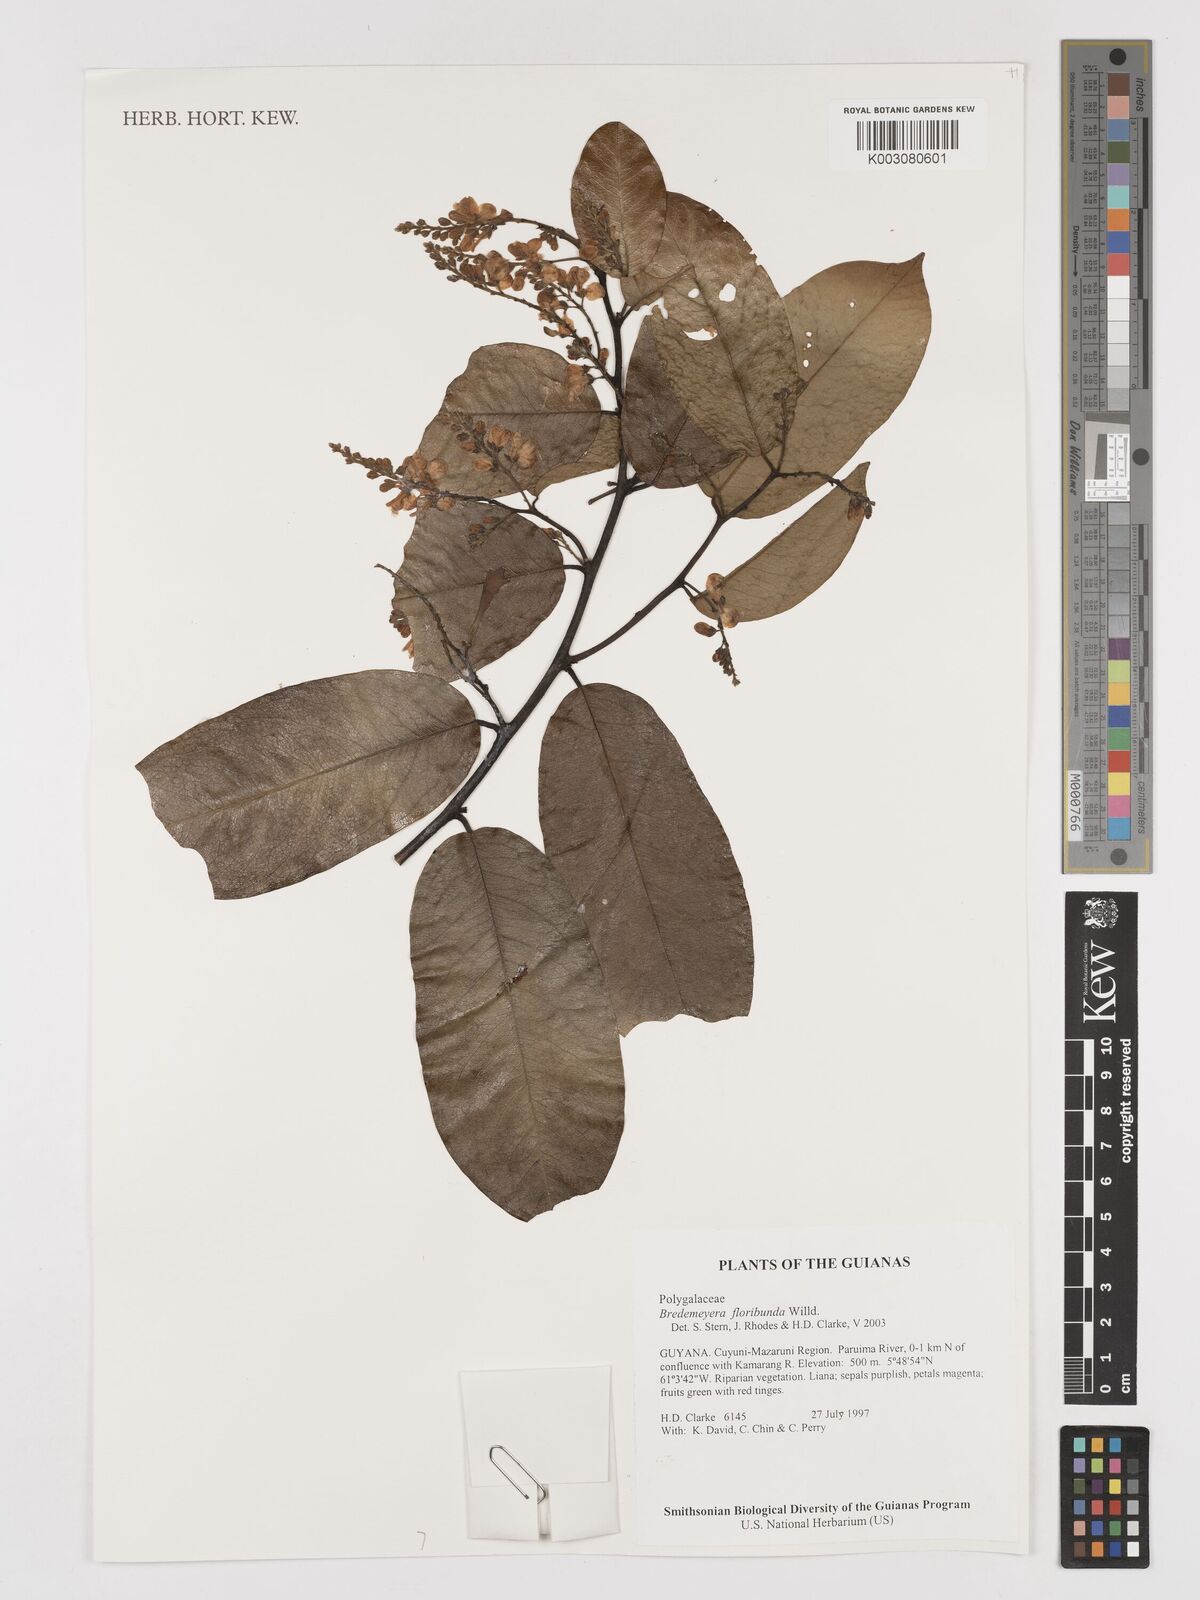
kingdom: Plantae
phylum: Tracheophyta
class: Magnoliopsida
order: Fabales
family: Polygalaceae
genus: Bredemeyera
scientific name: Bredemeyera floribunda
